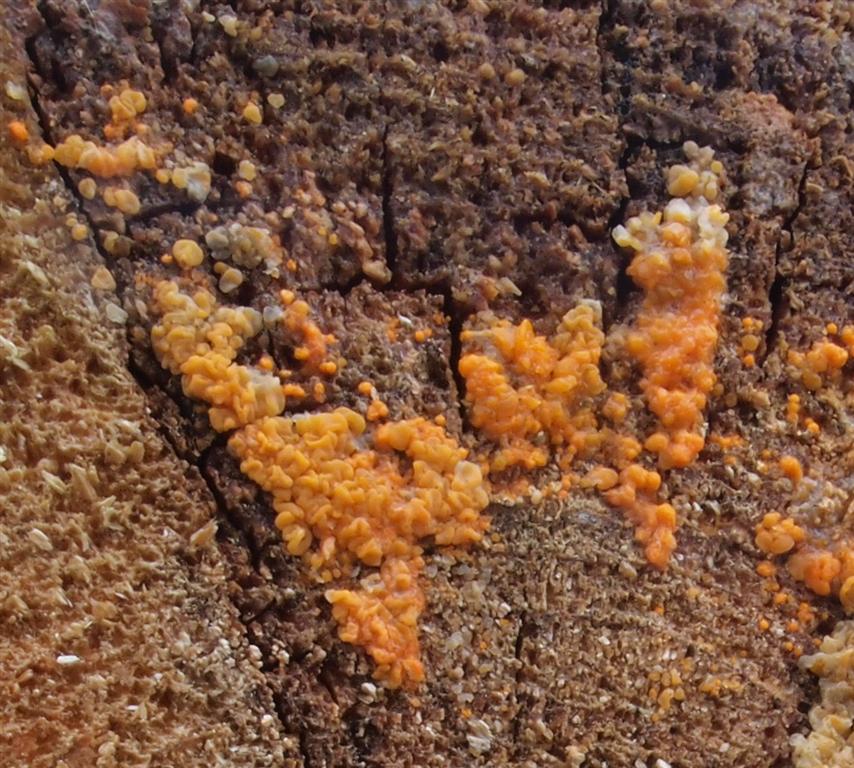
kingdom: Fungi
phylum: Basidiomycota
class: Dacrymycetes
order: Dacrymycetales
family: Dacrymycetaceae
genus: Dacrymyces
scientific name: Dacrymyces lacrymalis
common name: rynket tåresvamp
